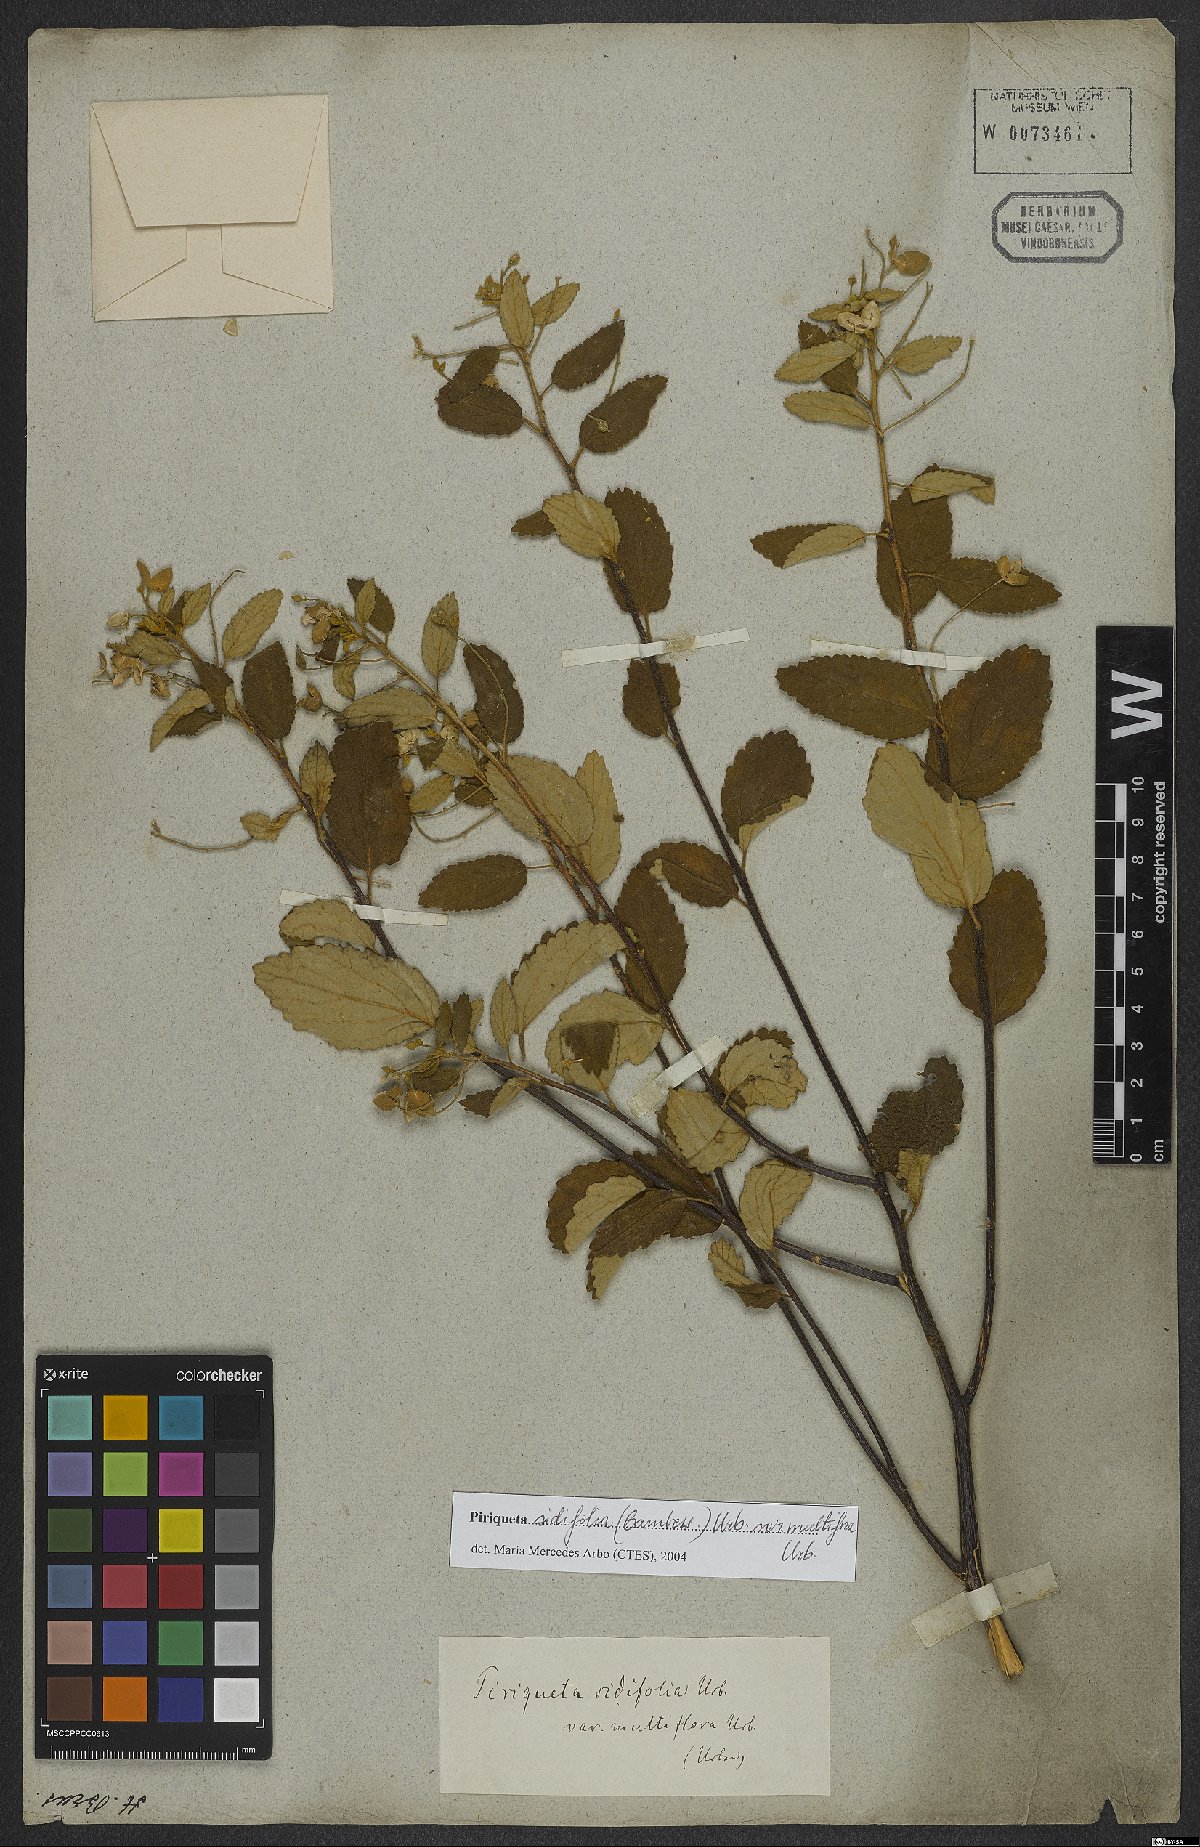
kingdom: Plantae
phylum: Tracheophyta
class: Magnoliopsida
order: Malpighiales
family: Turneraceae
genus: Piriqueta
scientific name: Piriqueta sidifolia
